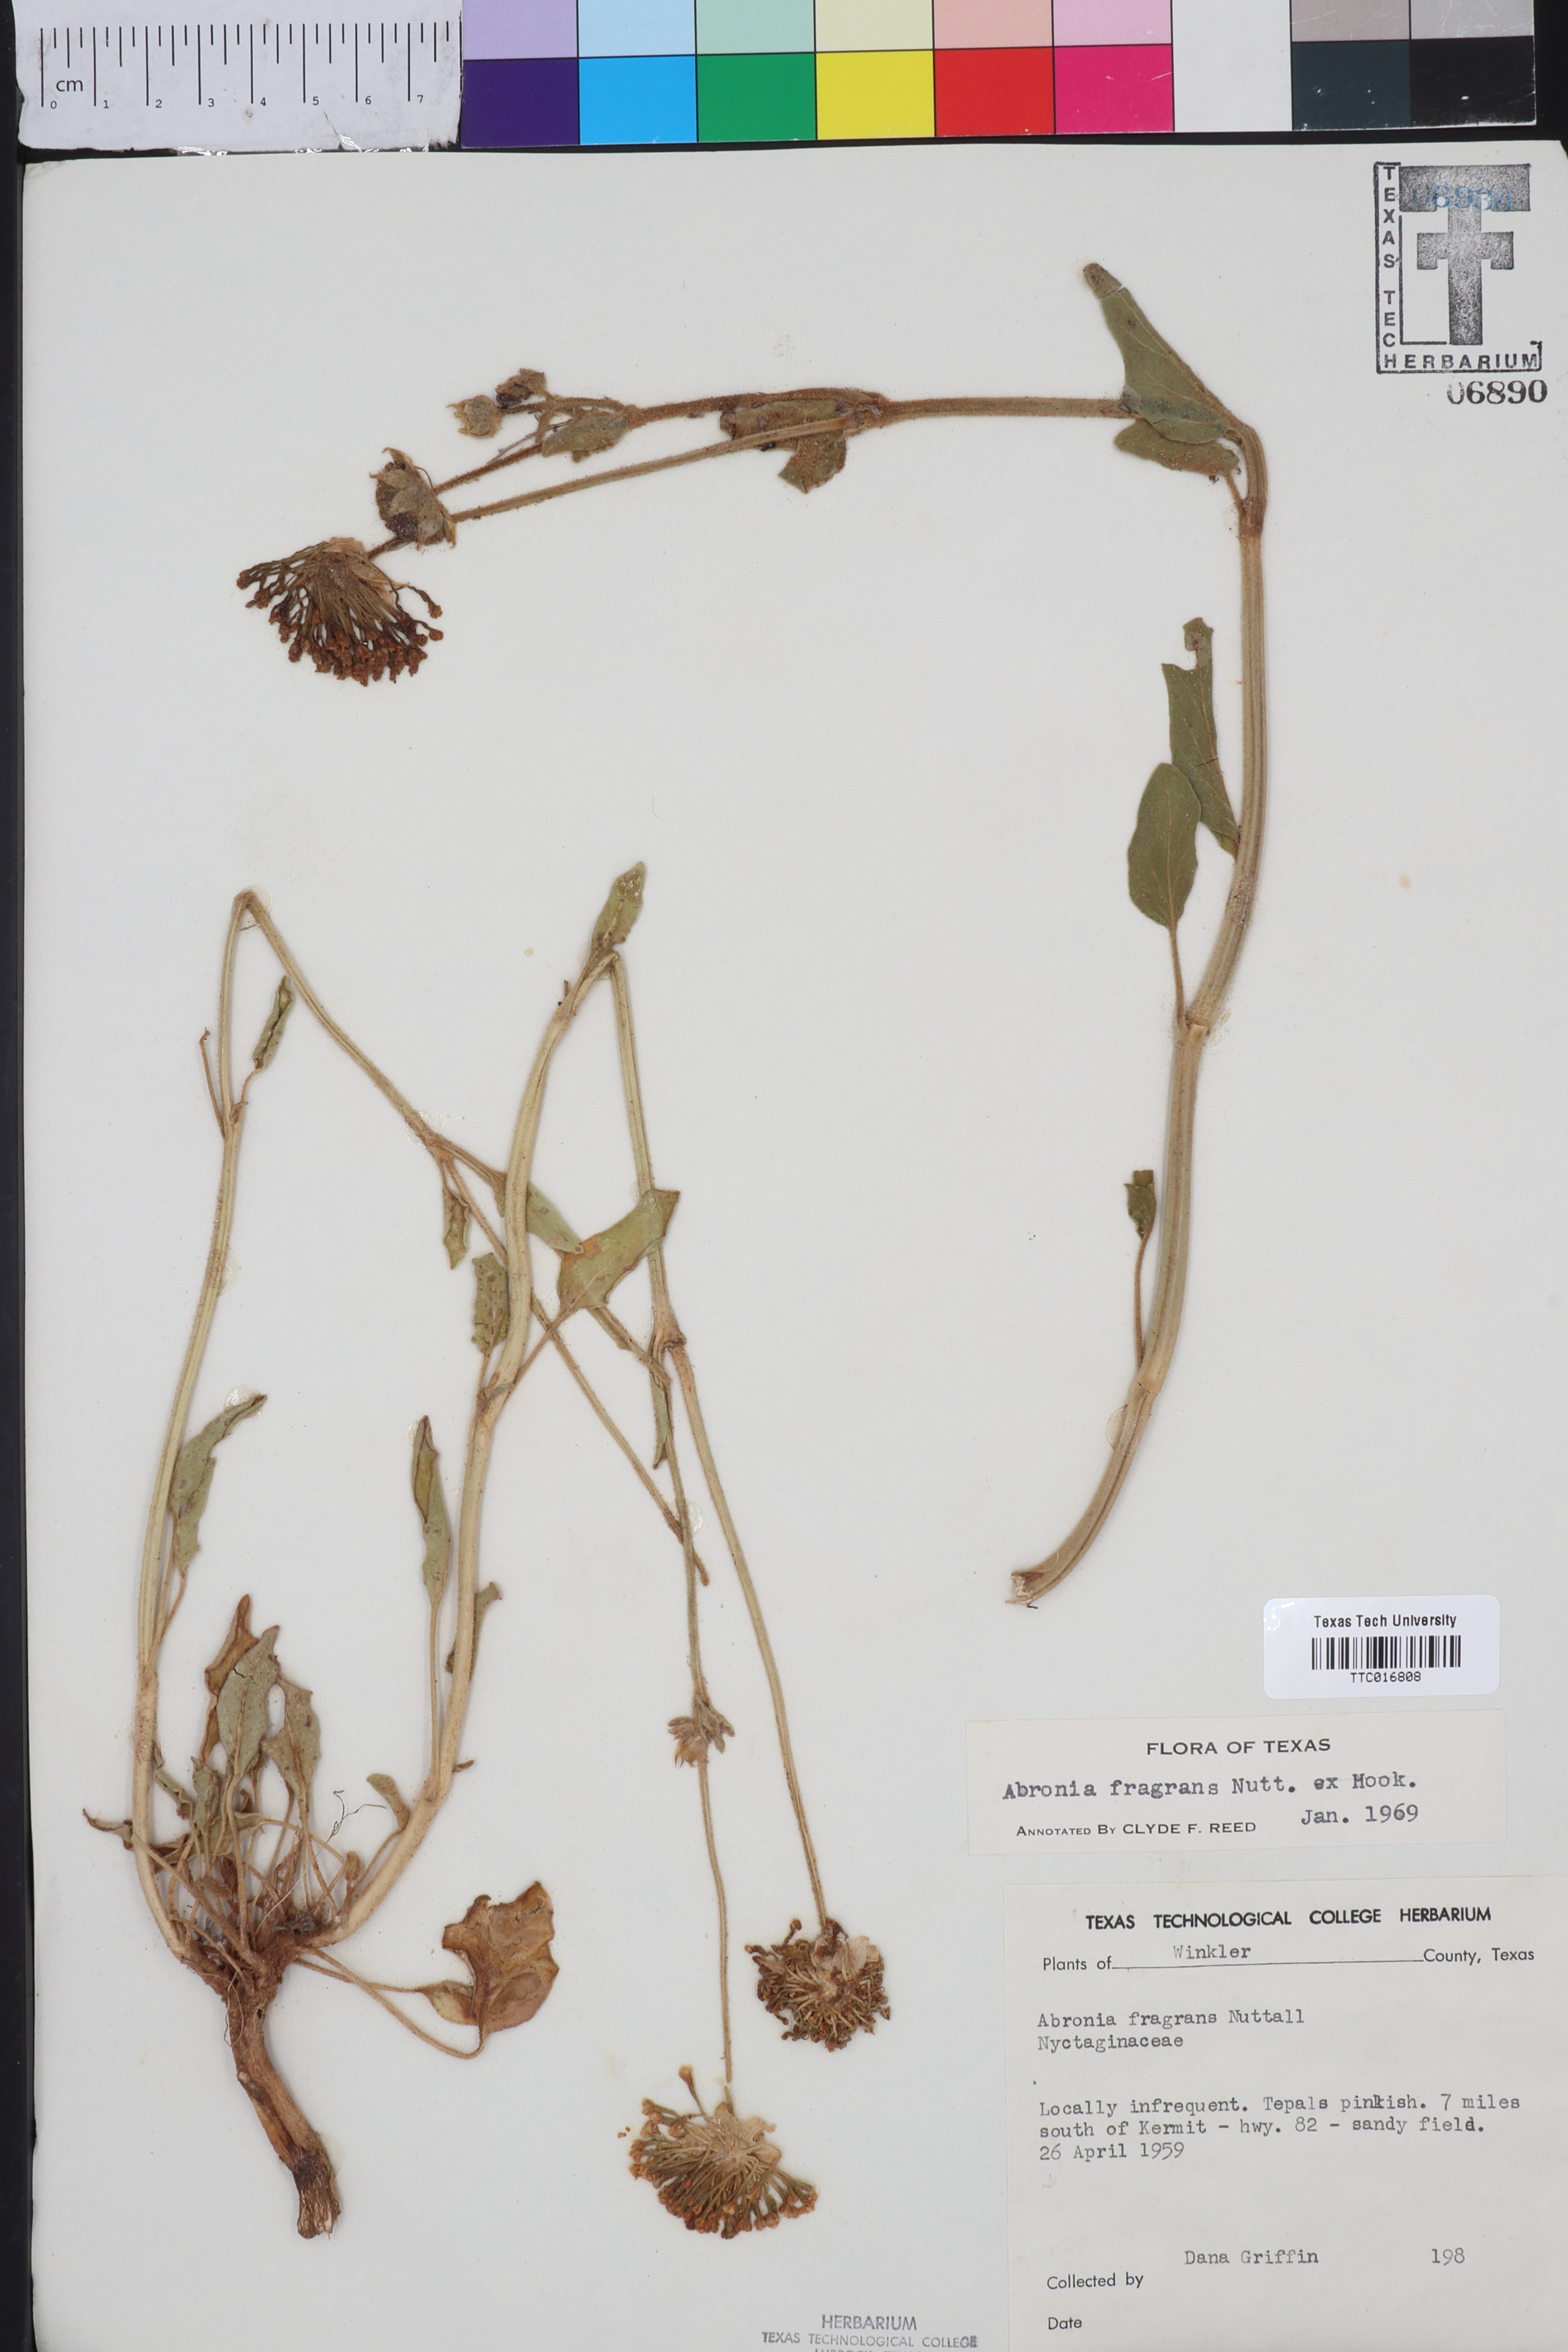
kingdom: Plantae
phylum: Tracheophyta
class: Magnoliopsida
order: Caryophyllales
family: Nyctaginaceae
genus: Abronia
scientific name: Abronia fragrans
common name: Fragrant sand-verbena
